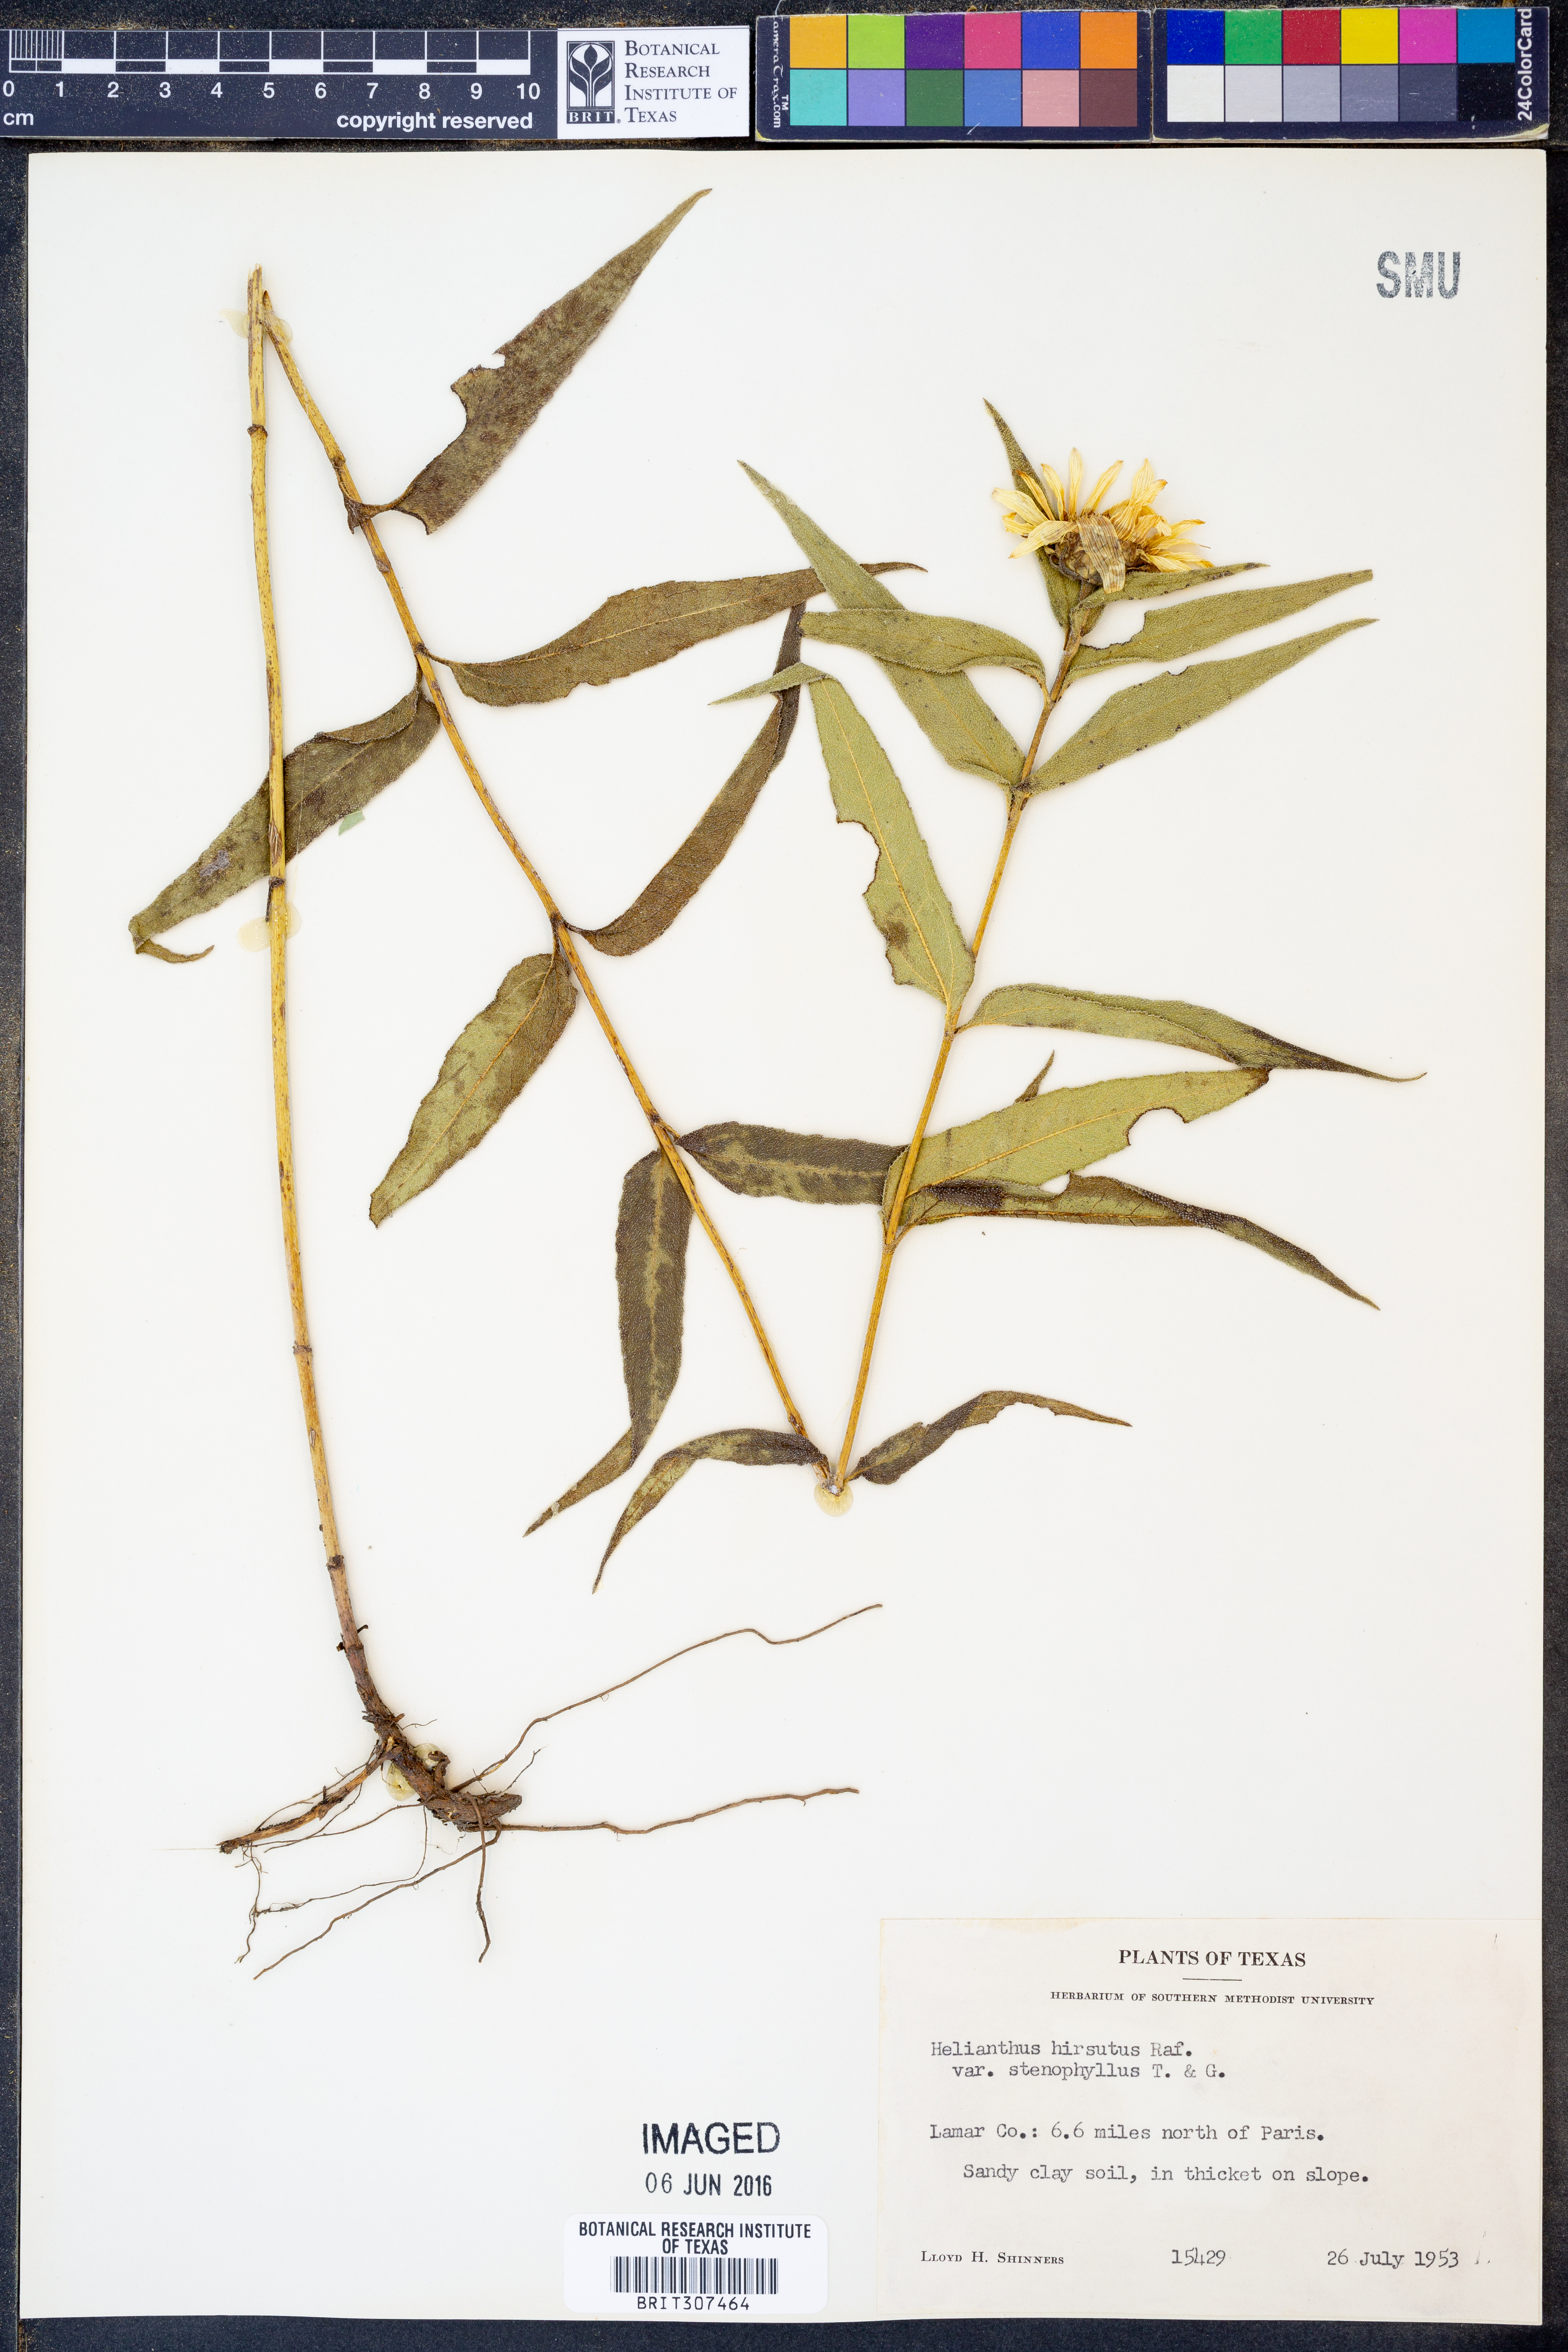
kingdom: Plantae
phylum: Tracheophyta
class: Magnoliopsida
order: Asterales
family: Asteraceae
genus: Helianthus
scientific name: Helianthus hirsutus
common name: Hairy sunflower
